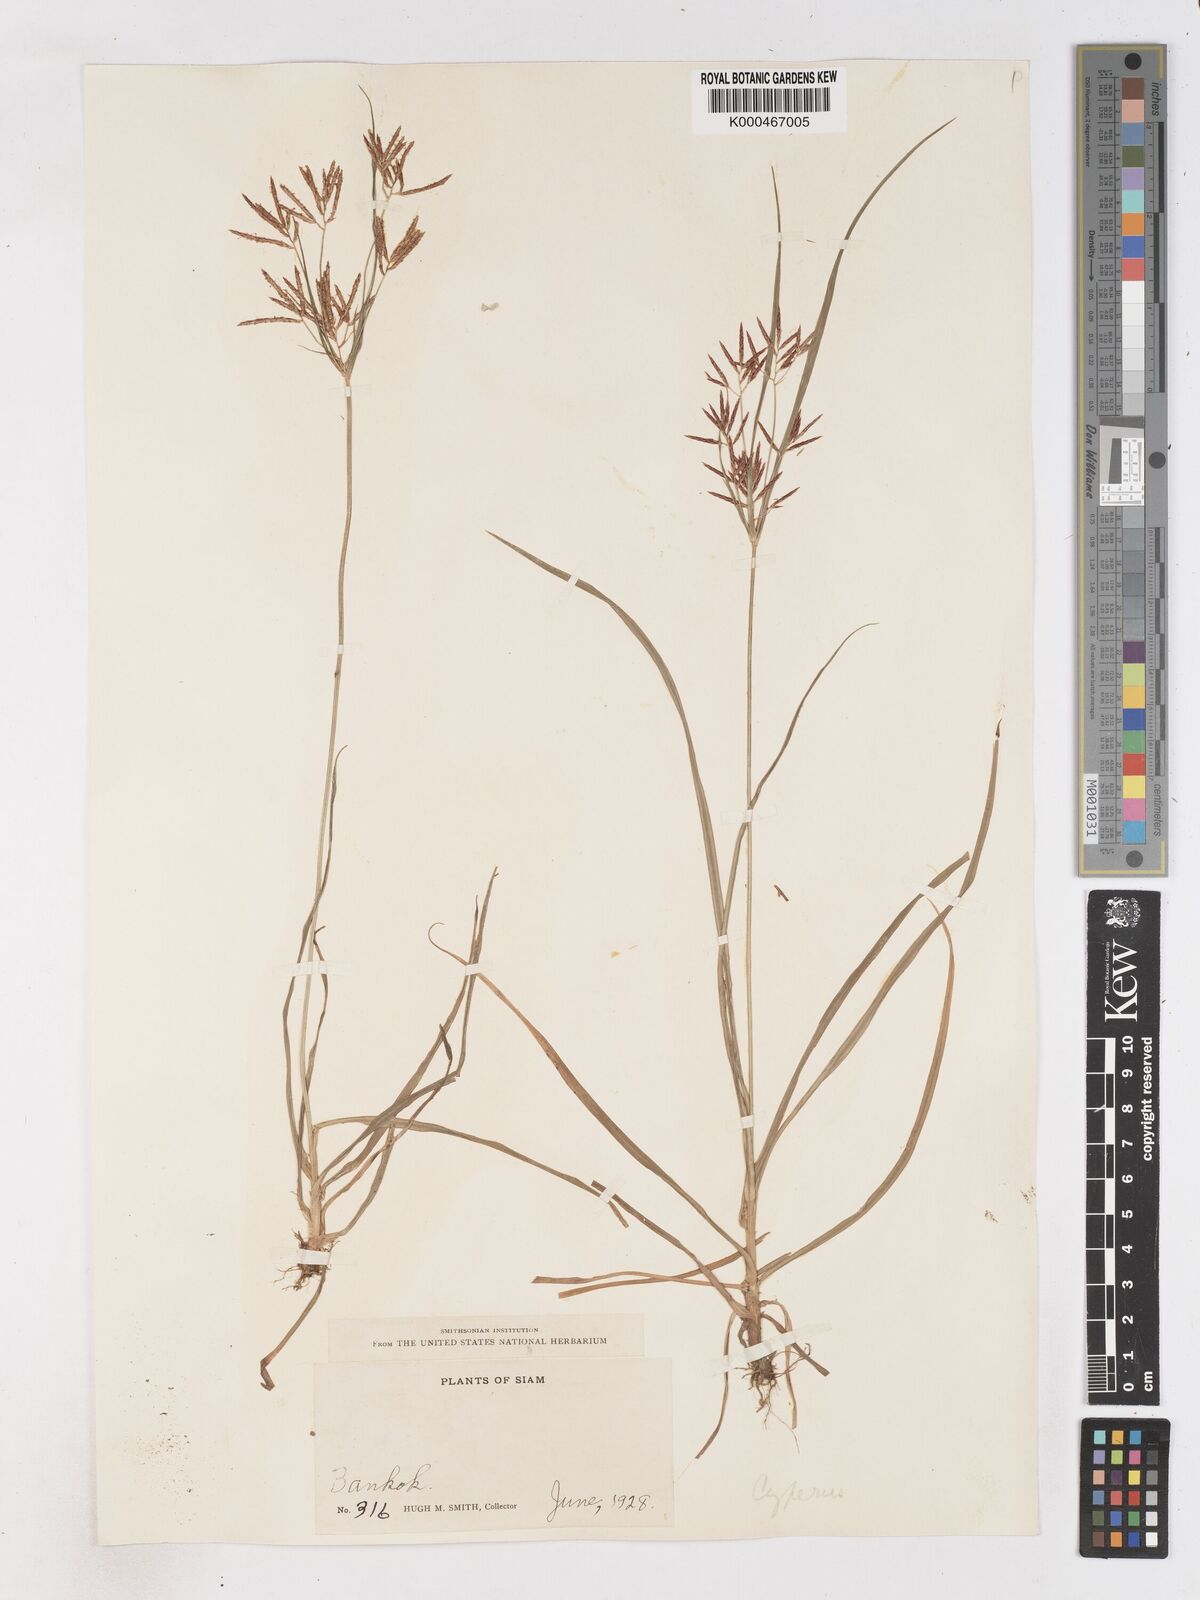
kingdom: Plantae
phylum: Tracheophyta
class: Liliopsida
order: Poales
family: Cyperaceae
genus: Cyperus
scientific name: Cyperus rotundus
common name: Nutgrass
